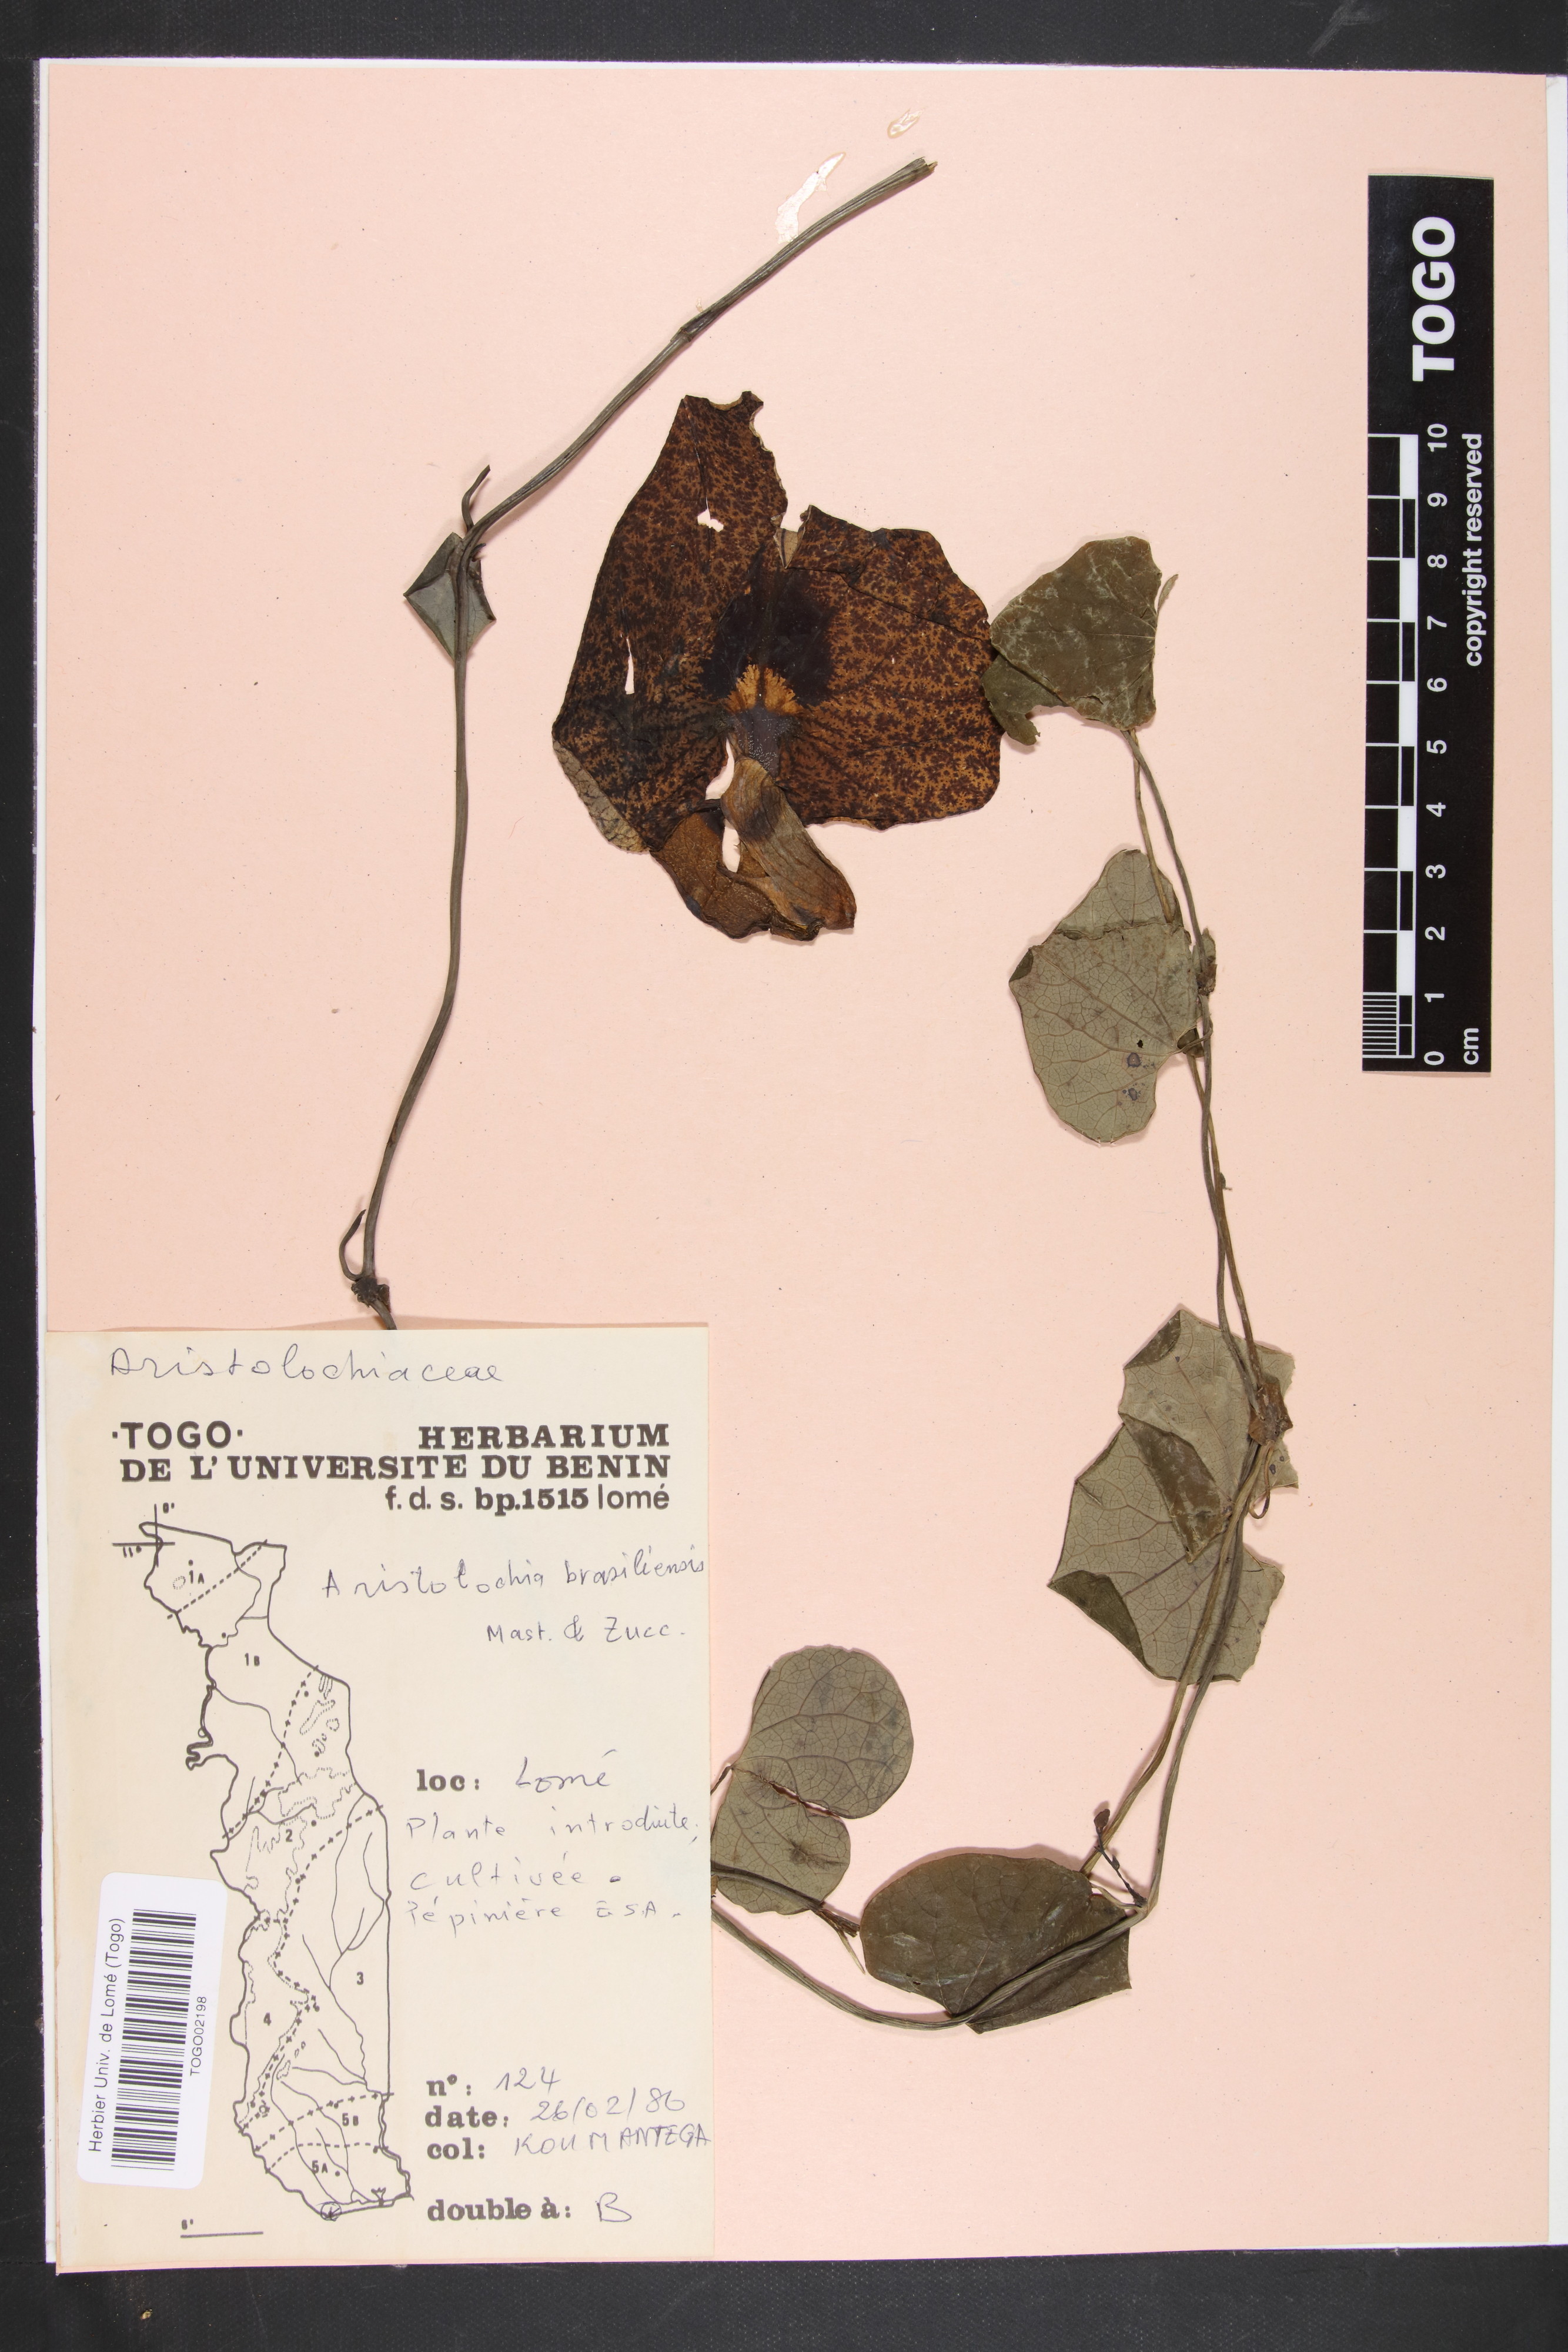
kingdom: Plantae
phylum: Tracheophyta
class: Magnoliopsida
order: Piperales
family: Aristolochiaceae
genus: Aristolochia
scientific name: Aristolochia labiata
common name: Mottled dutchman's pipe
